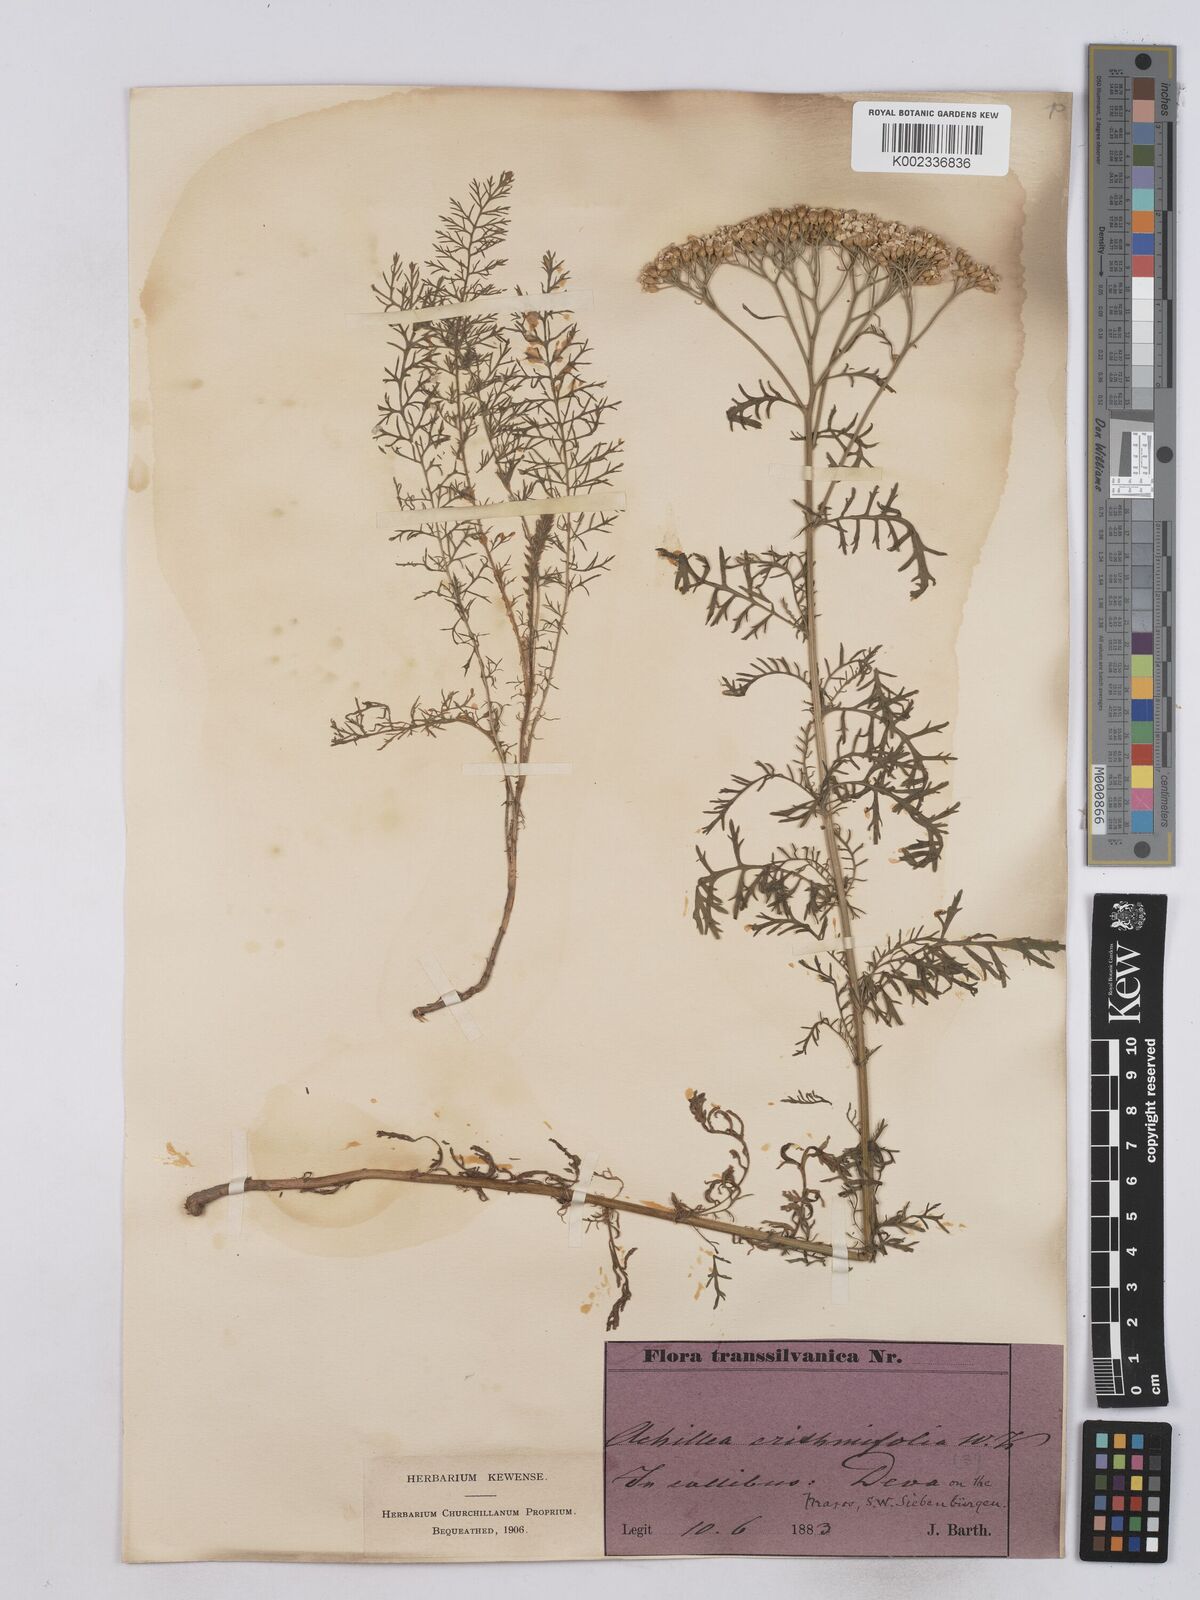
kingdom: Plantae
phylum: Tracheophyta
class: Magnoliopsida
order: Asterales
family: Asteraceae
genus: Achillea
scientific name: Achillea crithmifolia
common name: Yarrow
